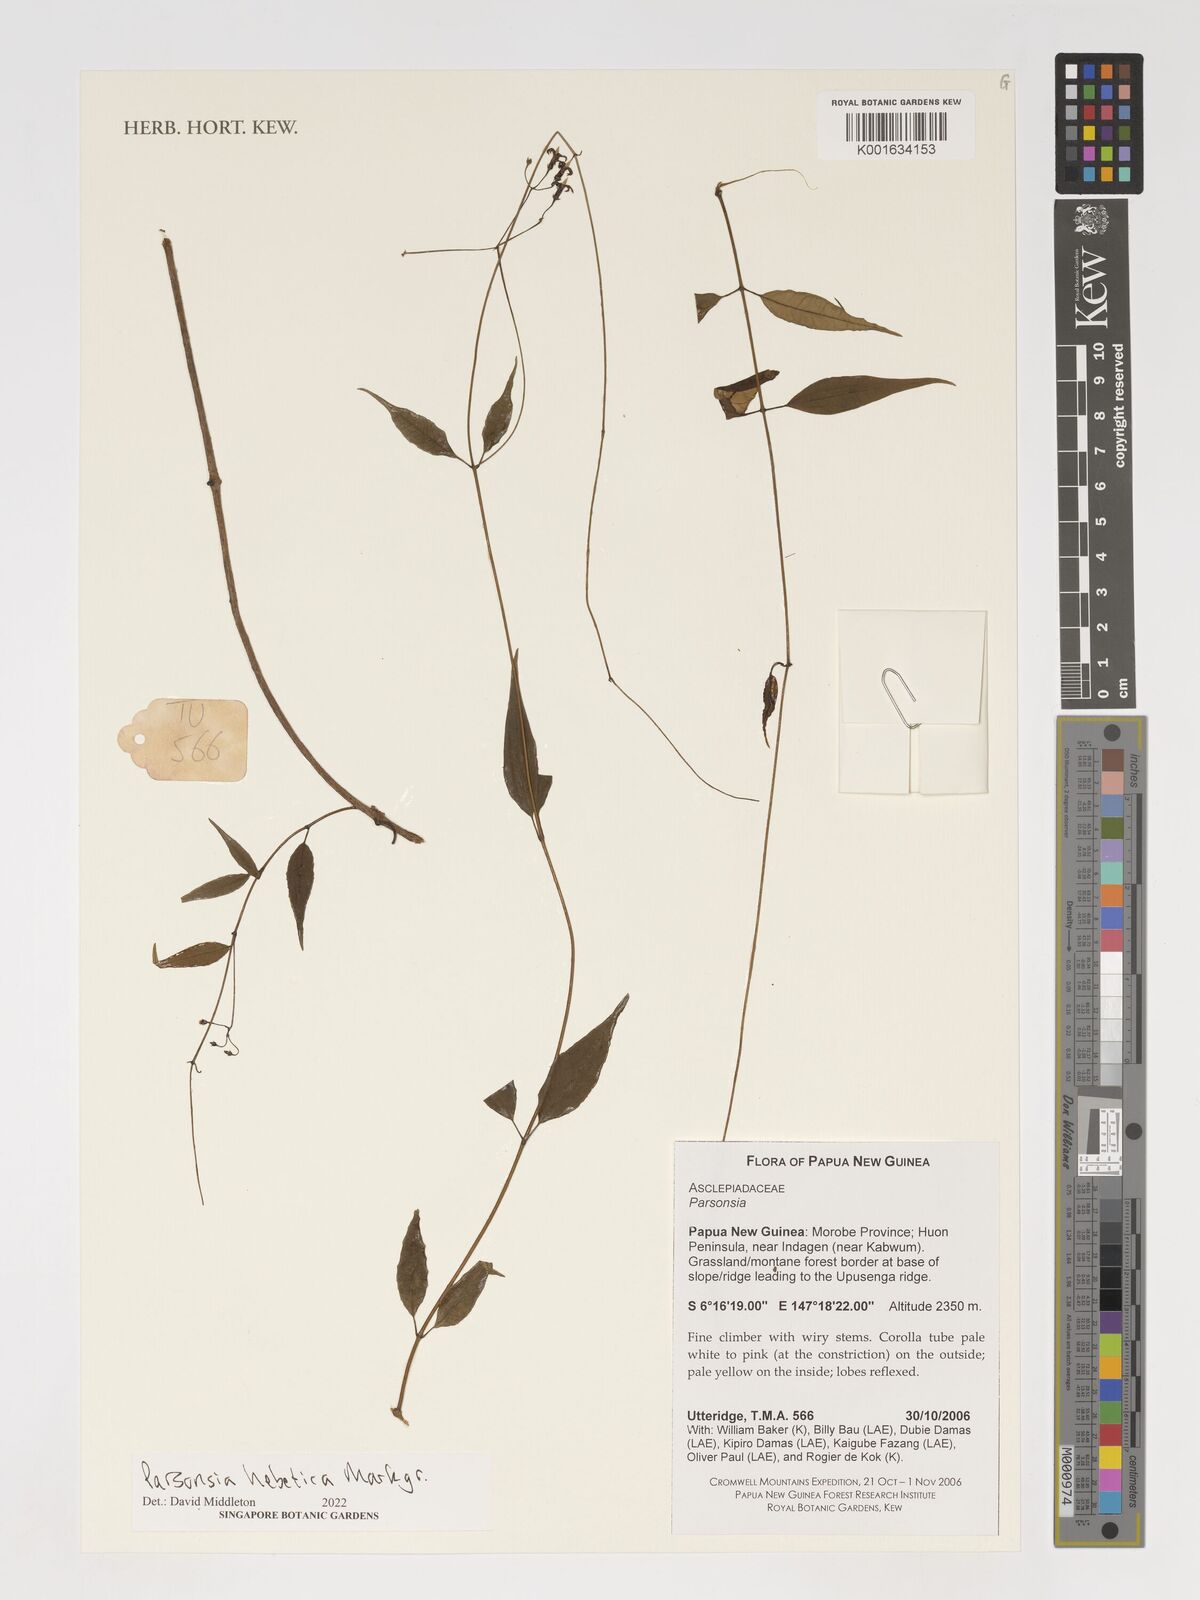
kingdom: Plantae
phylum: Tracheophyta
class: Magnoliopsida
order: Gentianales
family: Apocynaceae
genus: Parsonsia
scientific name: Parsonsia hebetica
